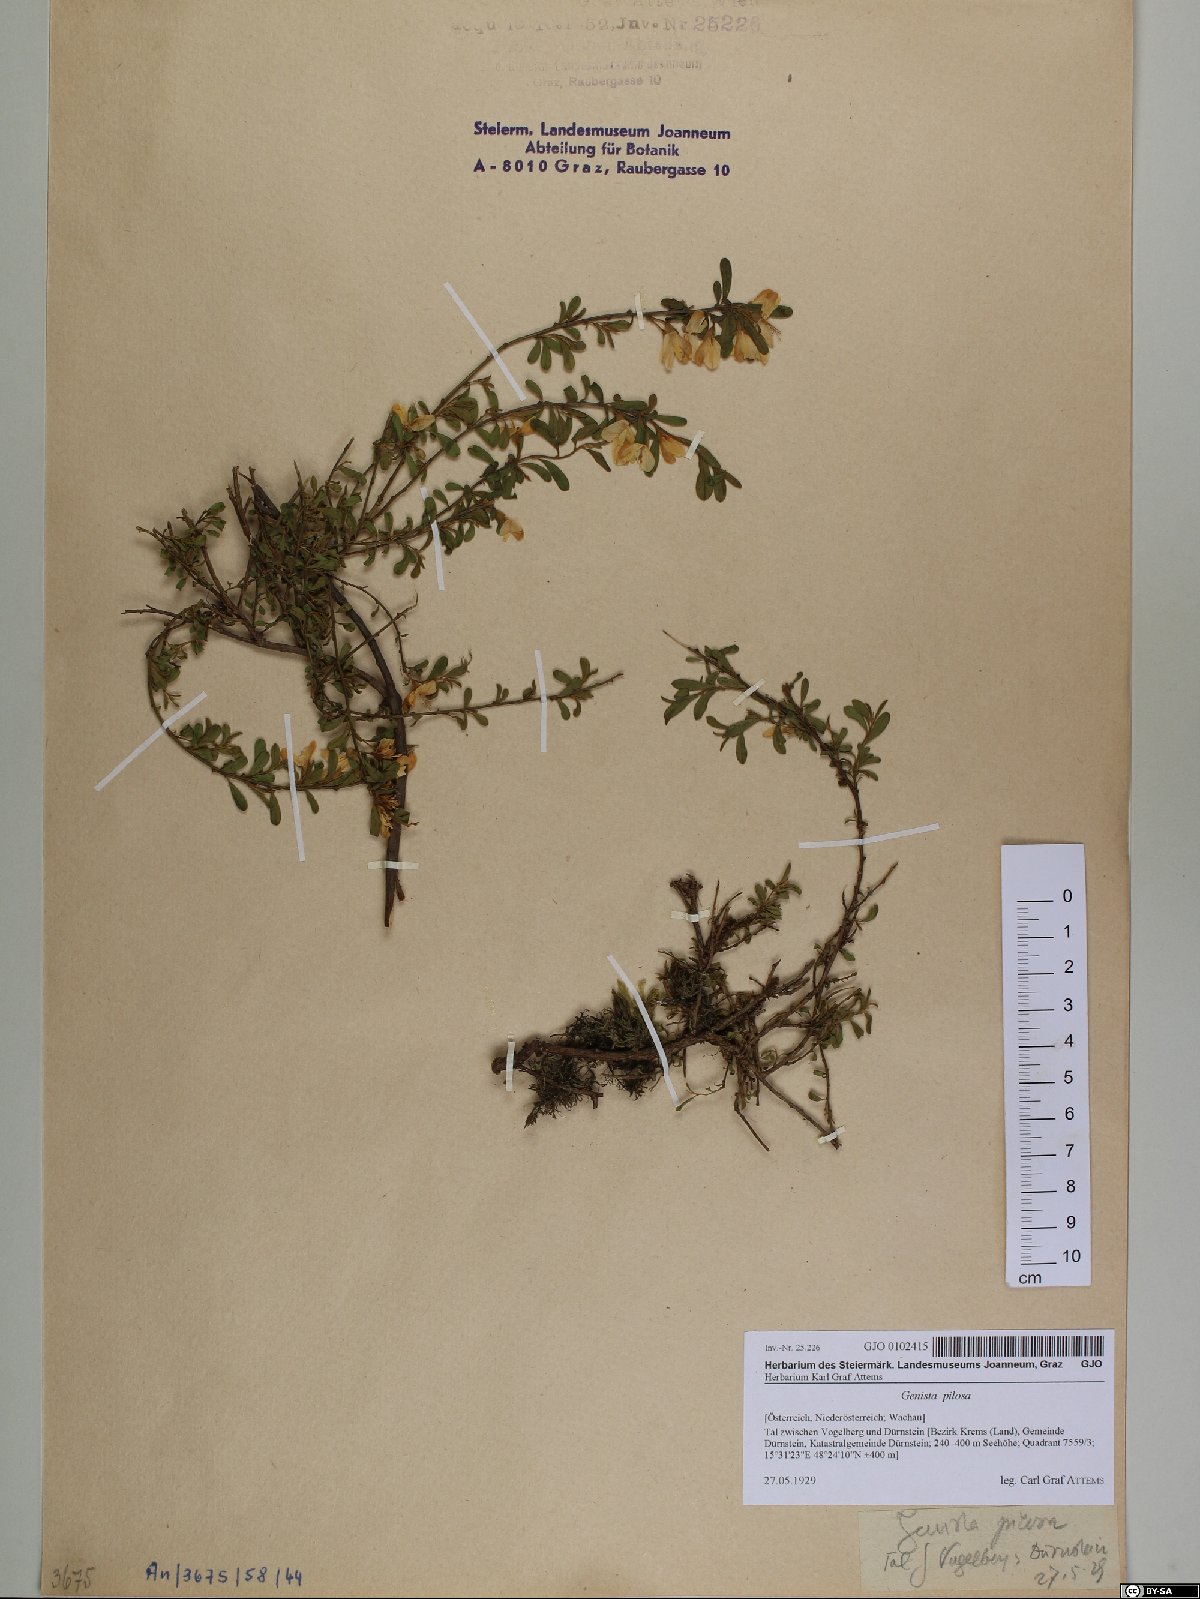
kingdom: Plantae
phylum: Tracheophyta
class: Magnoliopsida
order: Fabales
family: Fabaceae
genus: Genista
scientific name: Genista pilosa
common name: Hairy greenweed
